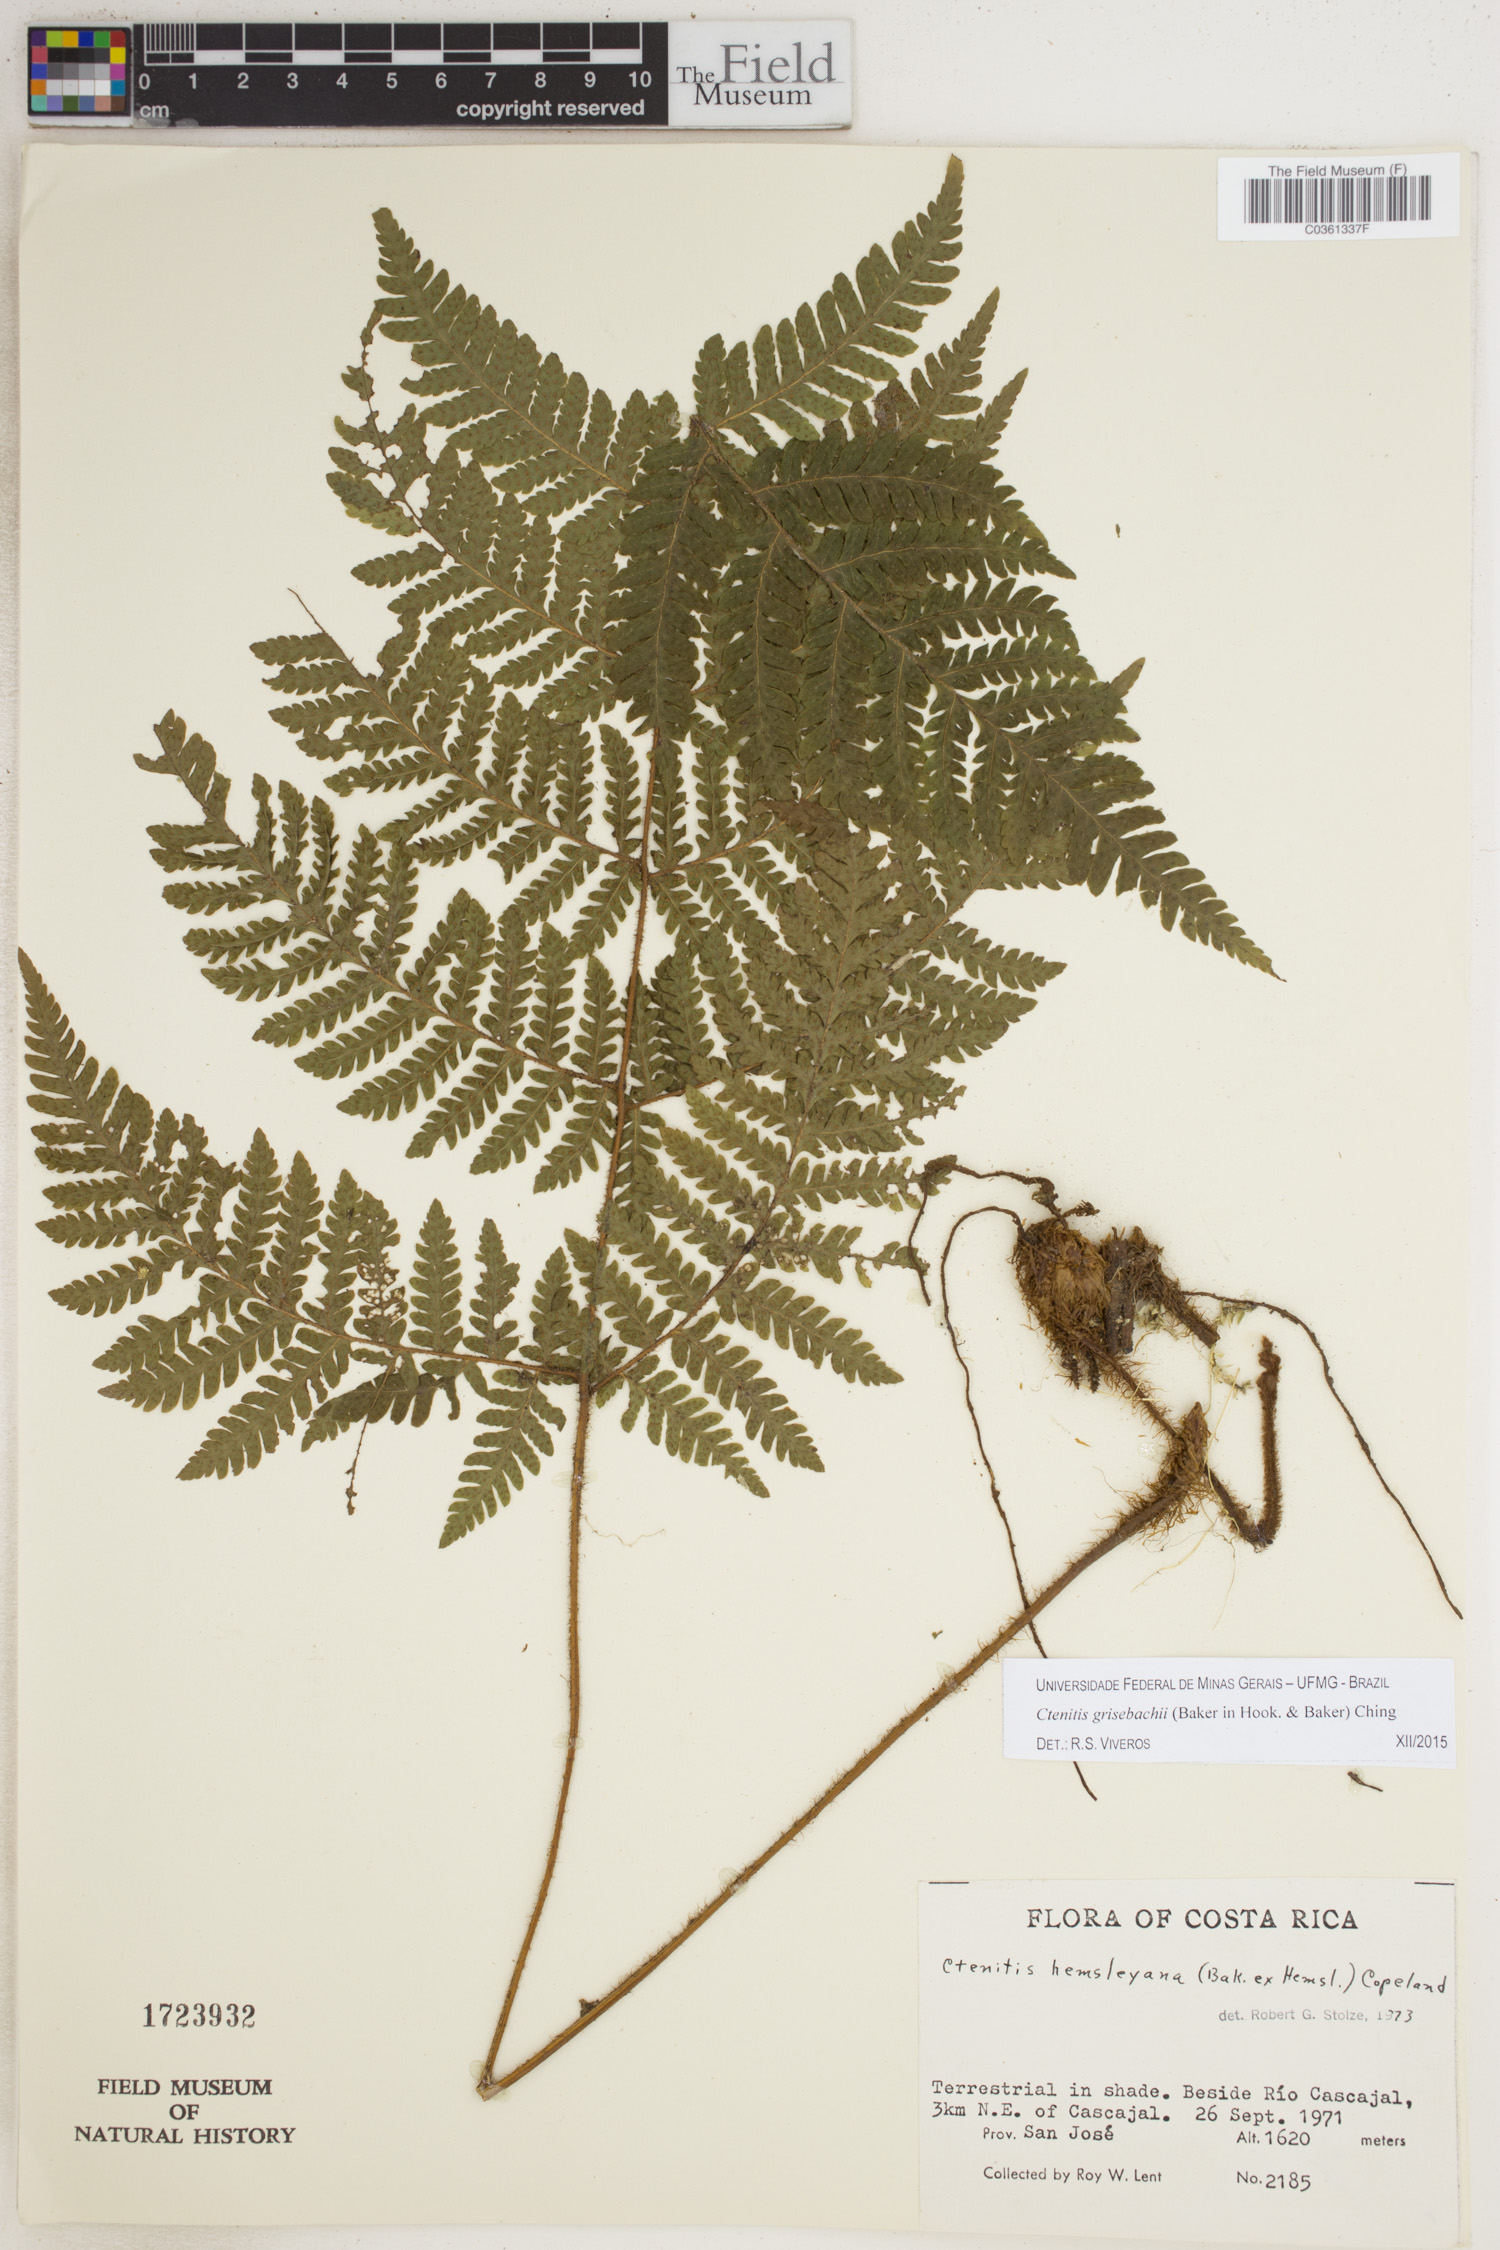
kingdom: Plantae
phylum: Tracheophyta
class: Polypodiopsida
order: Polypodiales
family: Dryopteridaceae
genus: Ctenitis
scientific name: Ctenitis grisebachii
